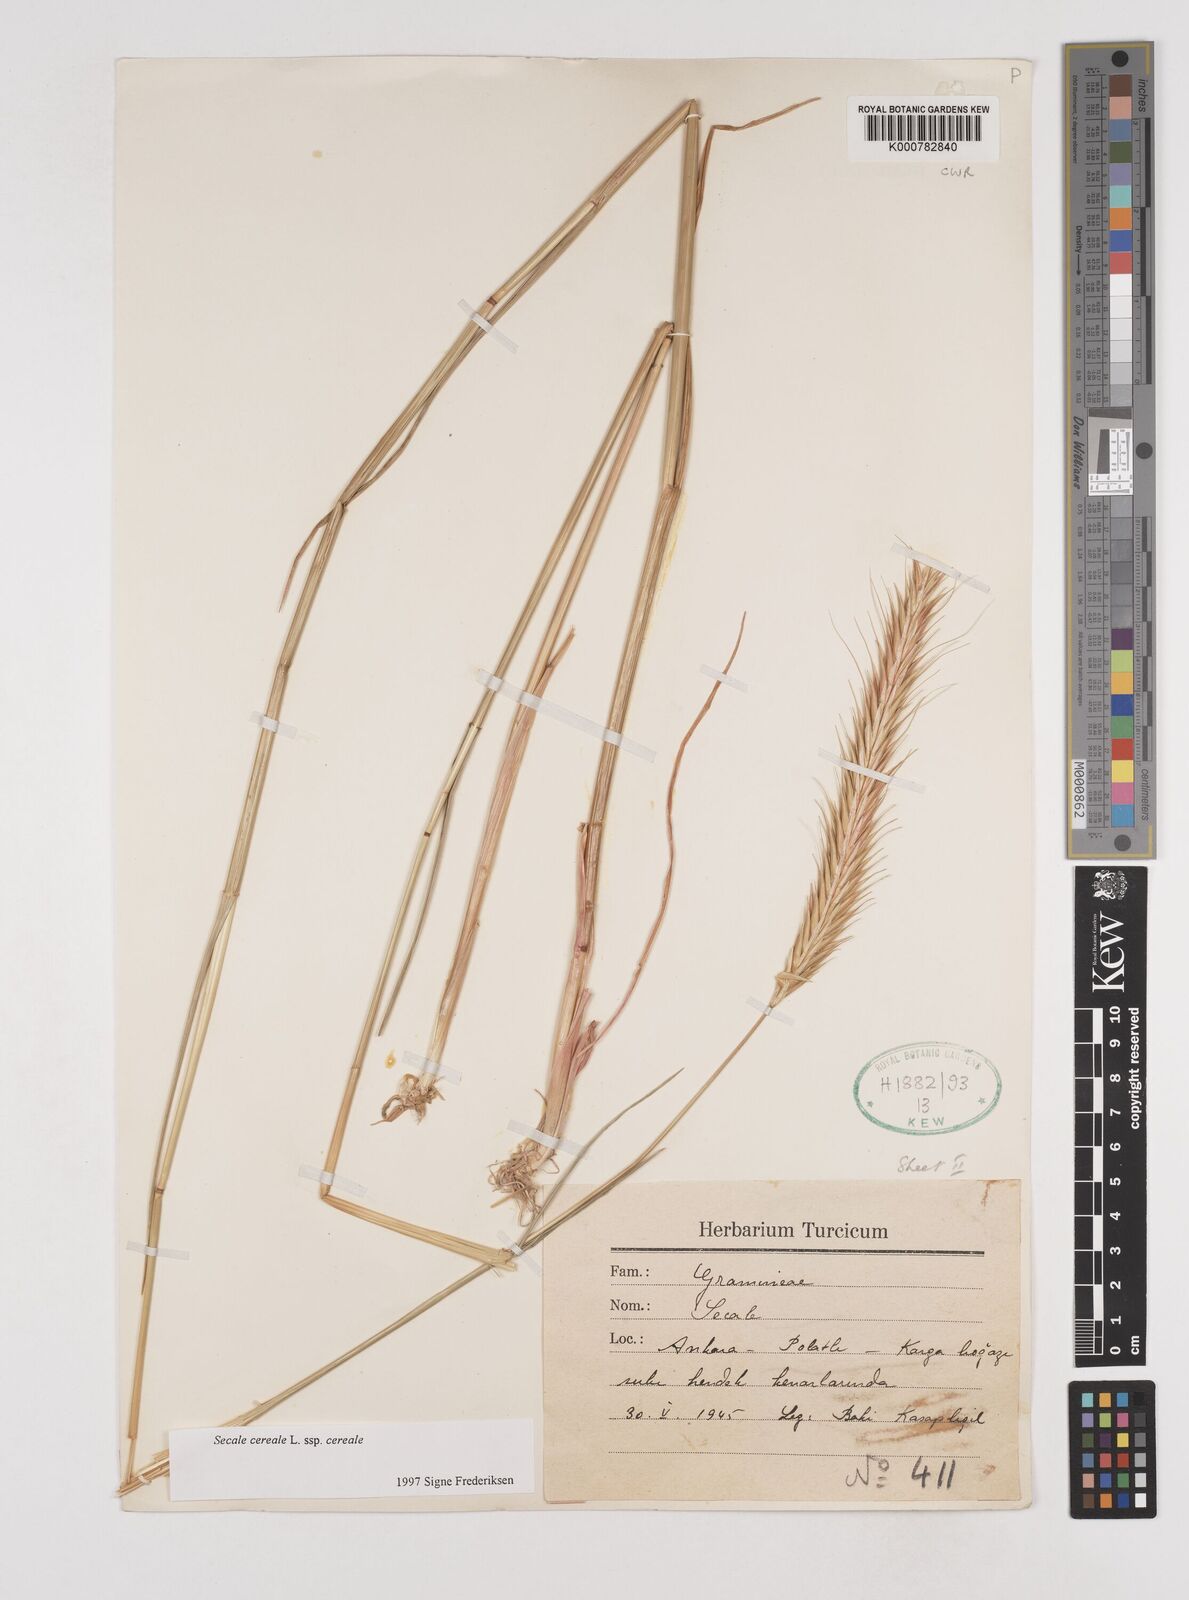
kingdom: Plantae
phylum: Tracheophyta
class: Liliopsida
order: Poales
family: Poaceae
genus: Secale
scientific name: Secale cereale
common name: Rye
